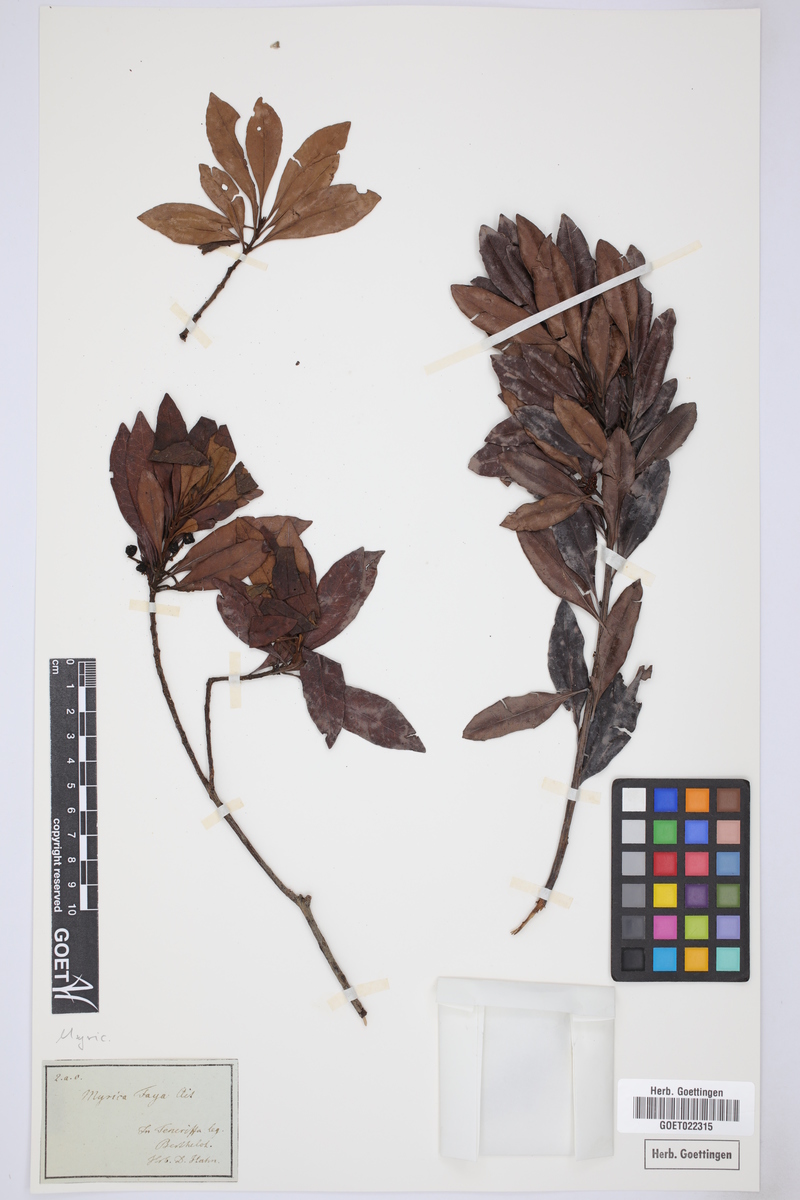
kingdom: Plantae
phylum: Tracheophyta
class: Magnoliopsida
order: Fagales
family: Myricaceae
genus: Morella
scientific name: Morella faya
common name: Firetree
